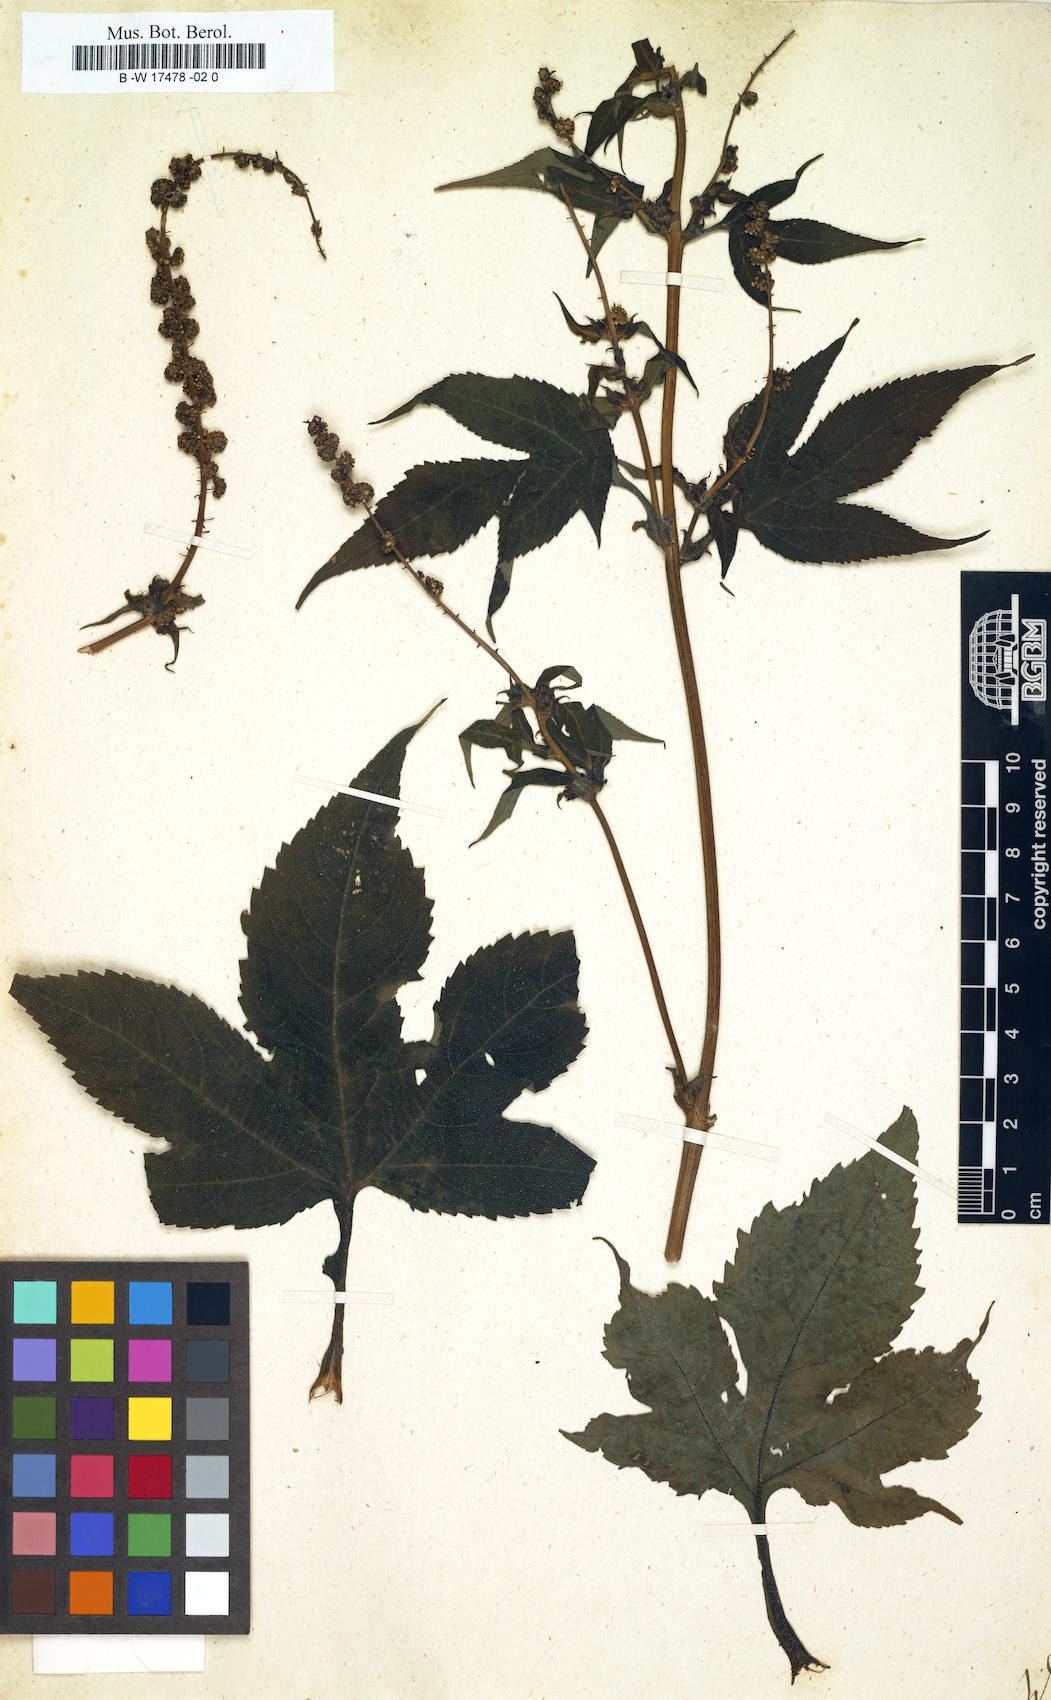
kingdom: Plantae
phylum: Tracheophyta
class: Magnoliopsida
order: Asterales
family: Asteraceae
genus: Ambrosia
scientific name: Ambrosia
